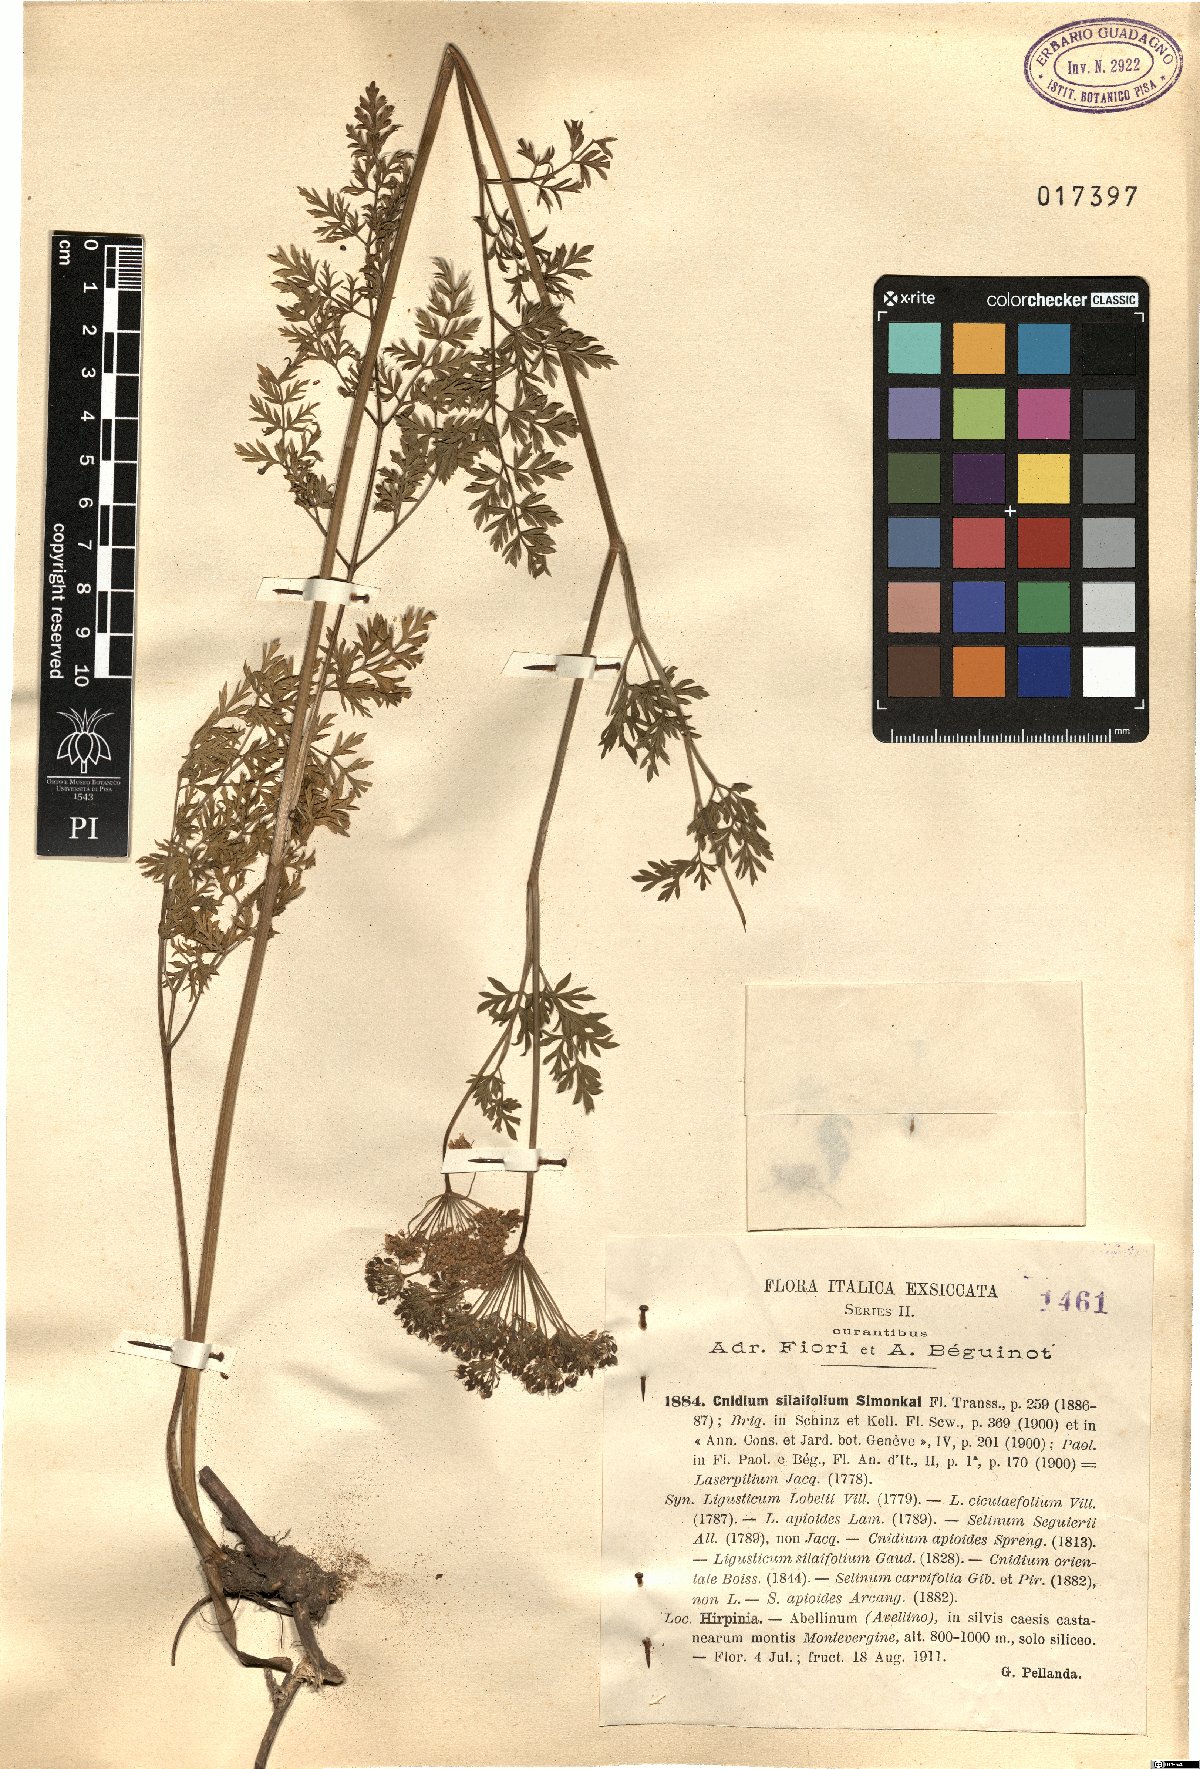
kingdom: Plantae
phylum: Tracheophyta
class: Magnoliopsida
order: Apiales
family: Apiaceae
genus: Katapsuxis
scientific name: Katapsuxis silaifolia
